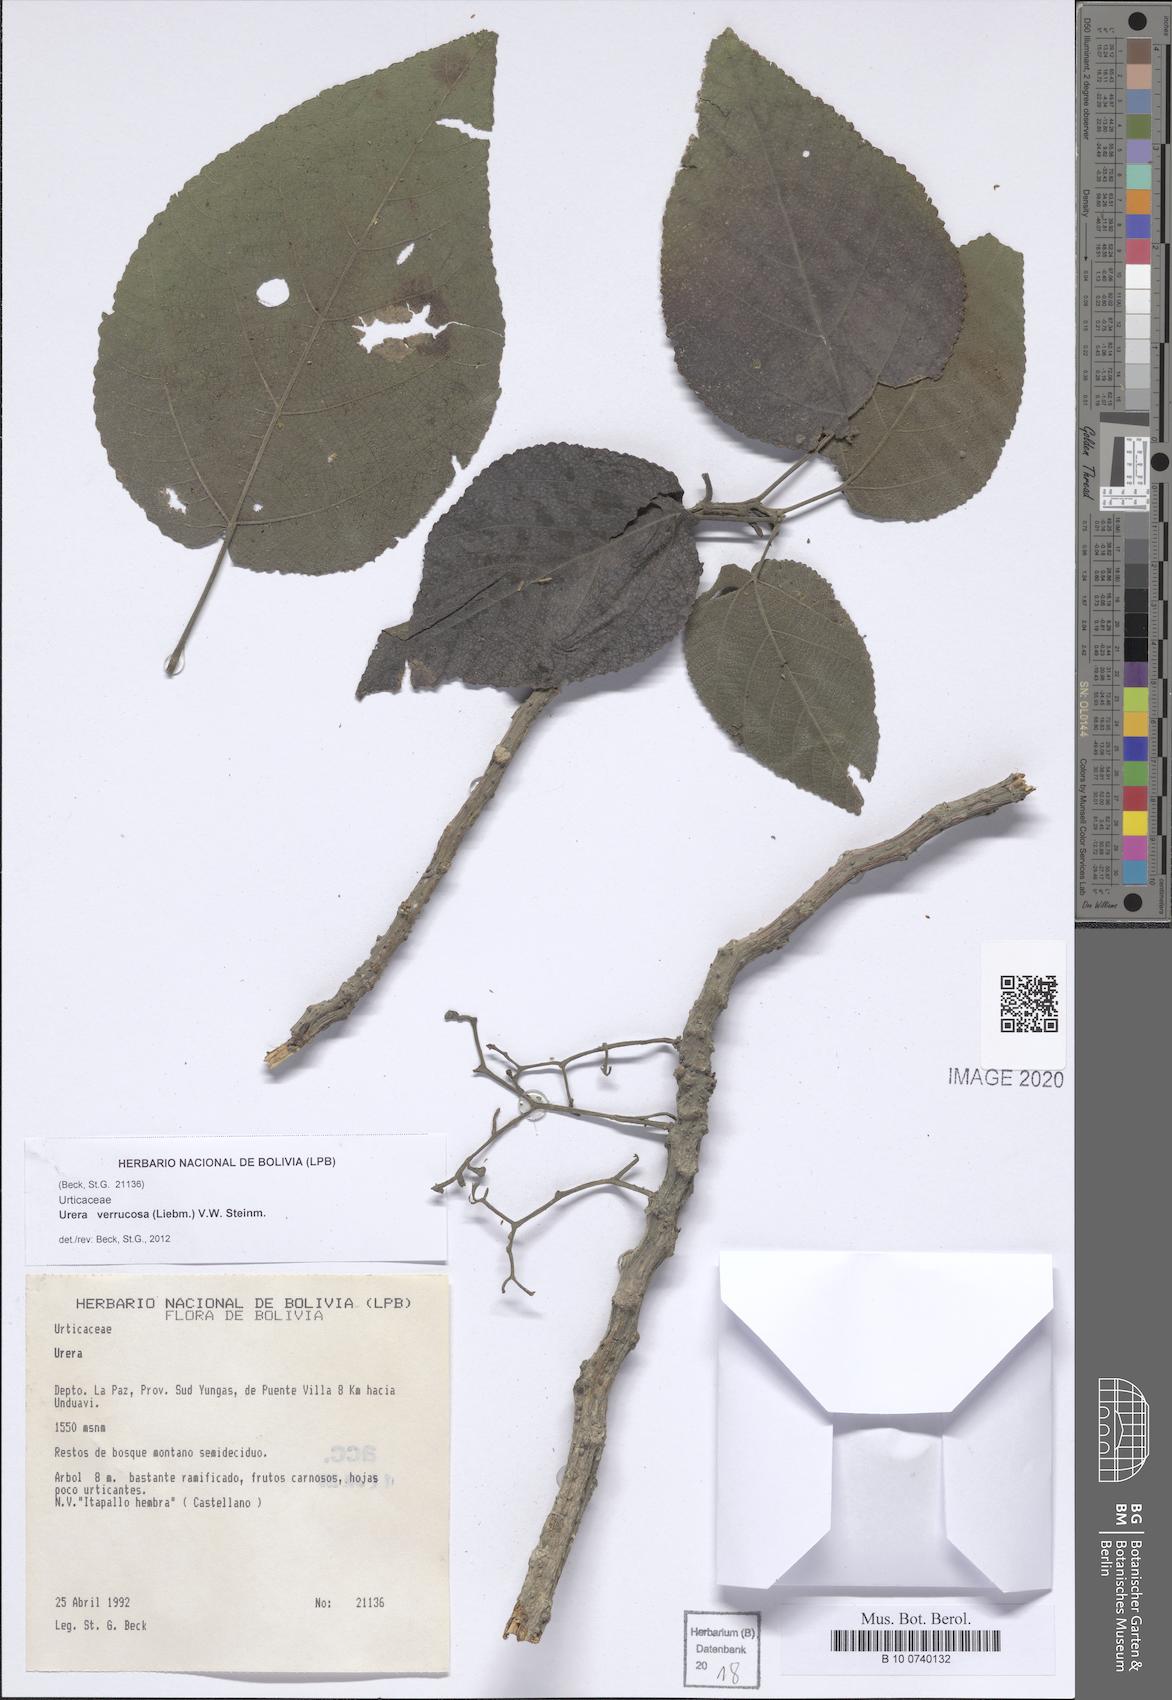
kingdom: Plantae
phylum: Tracheophyta
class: Magnoliopsida
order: Rosales
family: Urticaceae
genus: Urera
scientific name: Urera verrucosa
